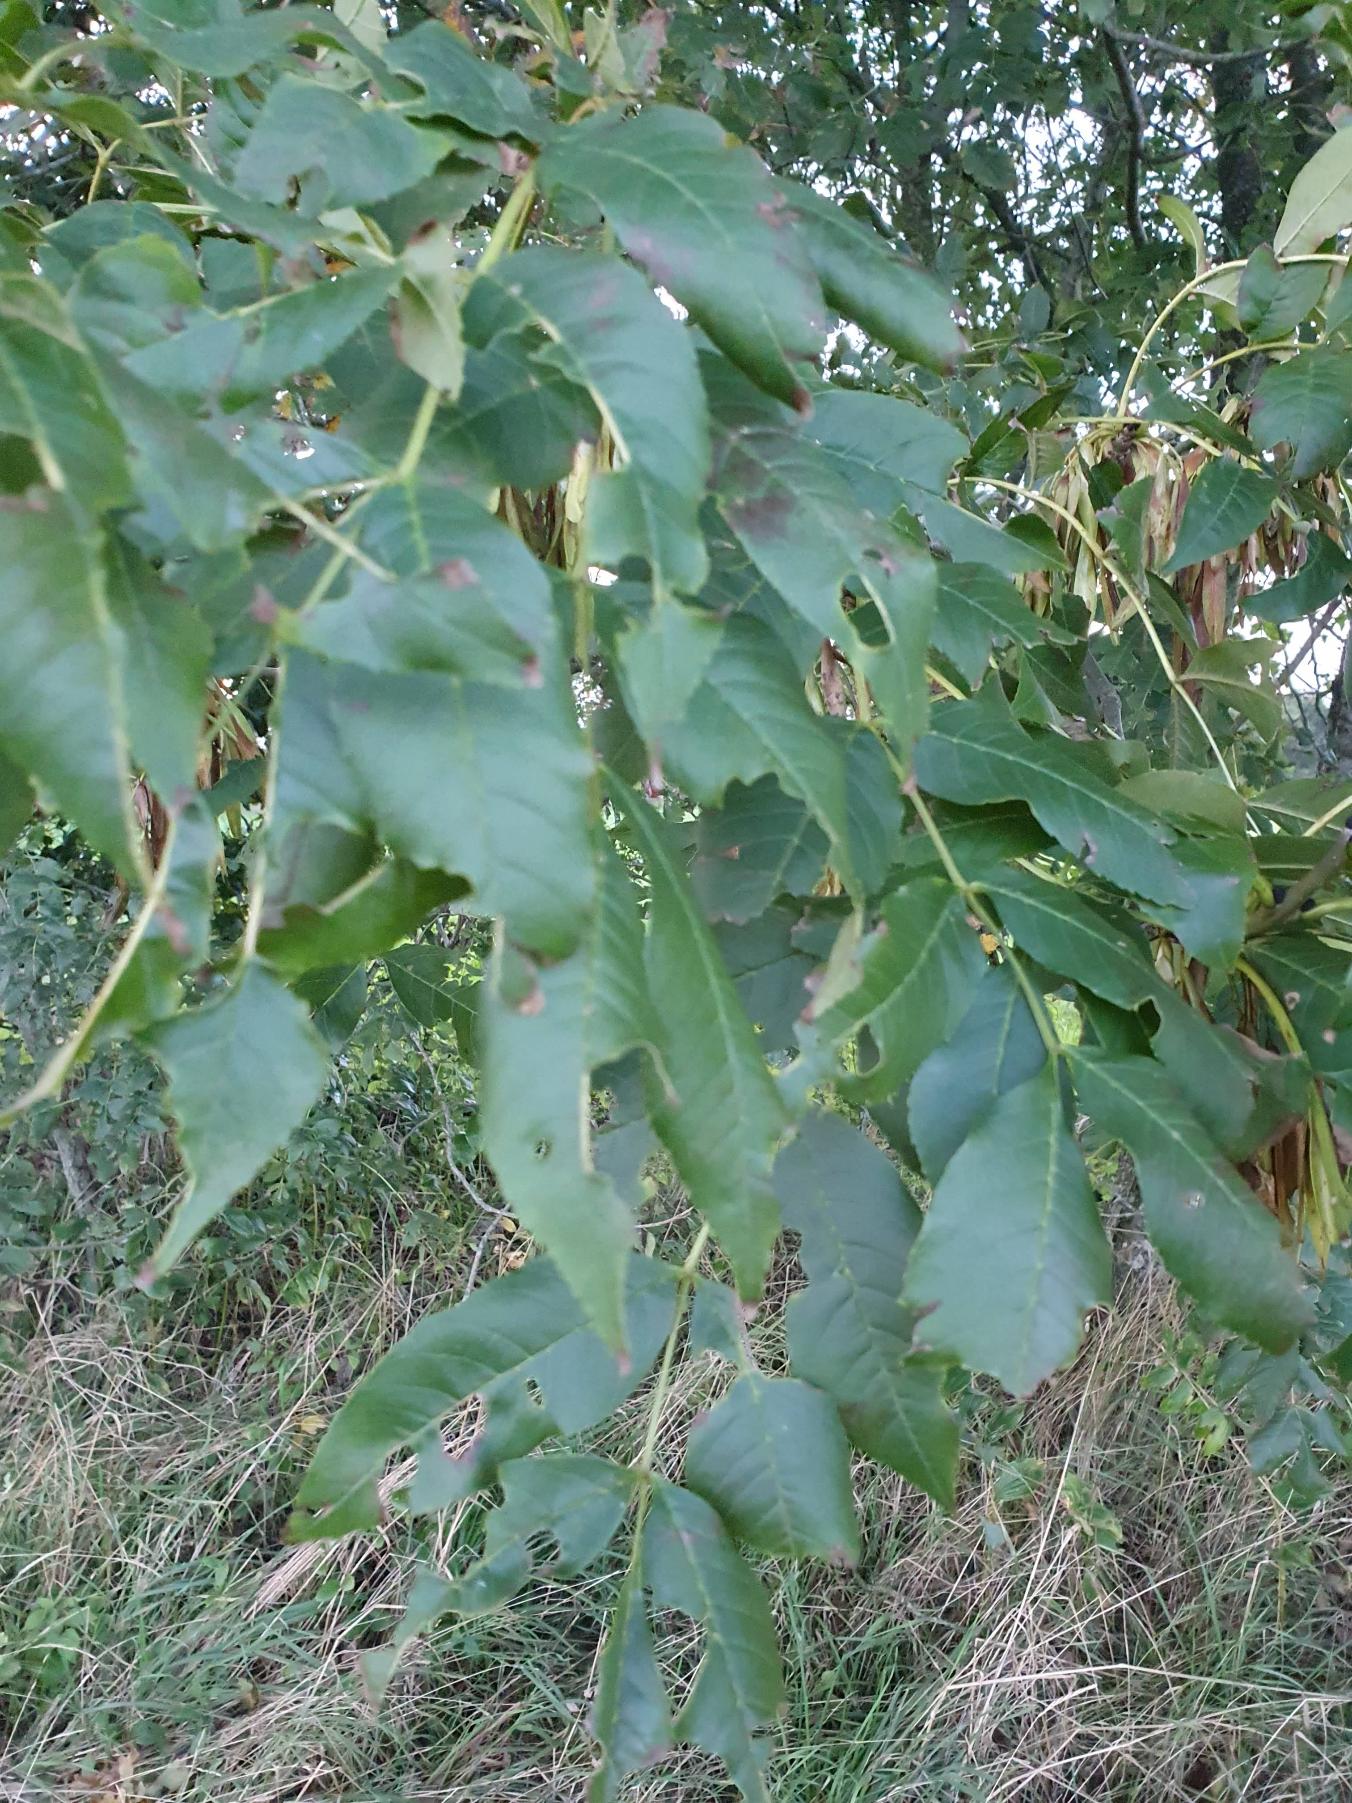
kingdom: Plantae
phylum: Tracheophyta
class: Magnoliopsida
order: Lamiales
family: Oleaceae
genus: Fraxinus
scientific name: Fraxinus excelsior
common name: Ask
